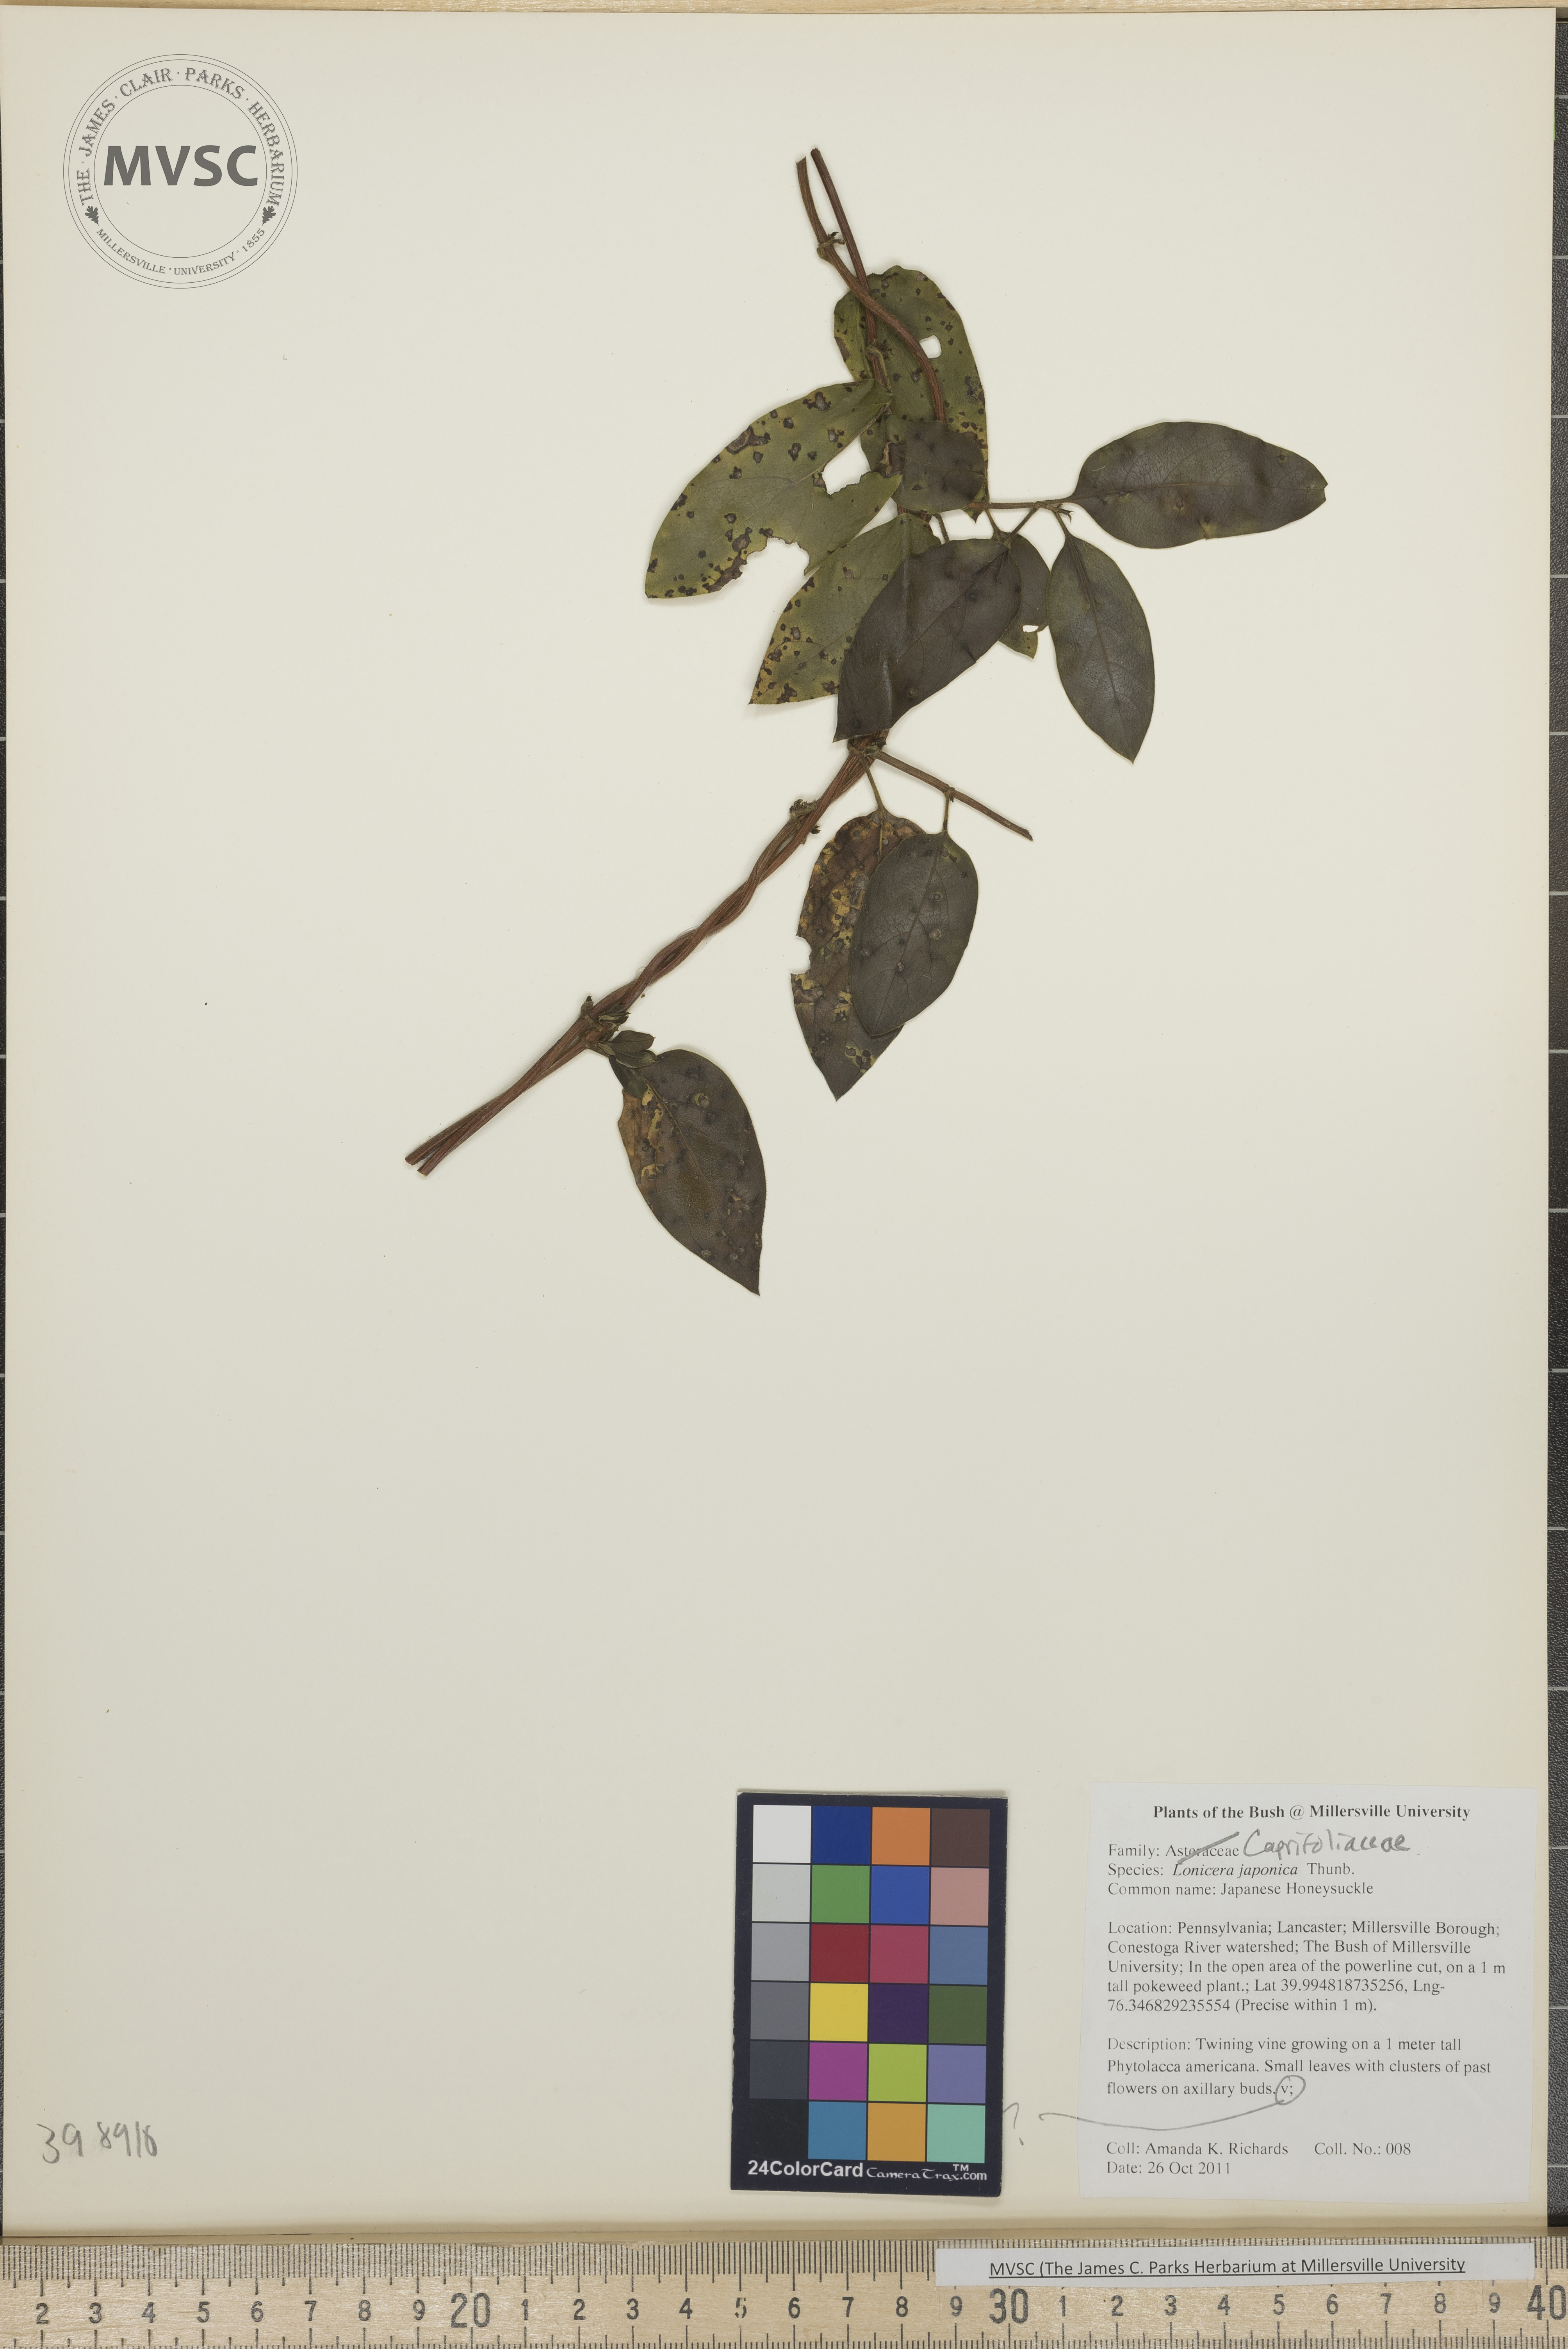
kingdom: Plantae
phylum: Tracheophyta
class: Magnoliopsida
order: Dipsacales
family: Caprifoliaceae
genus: Lonicera
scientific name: Lonicera japonica
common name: Japanese honeysuckle
